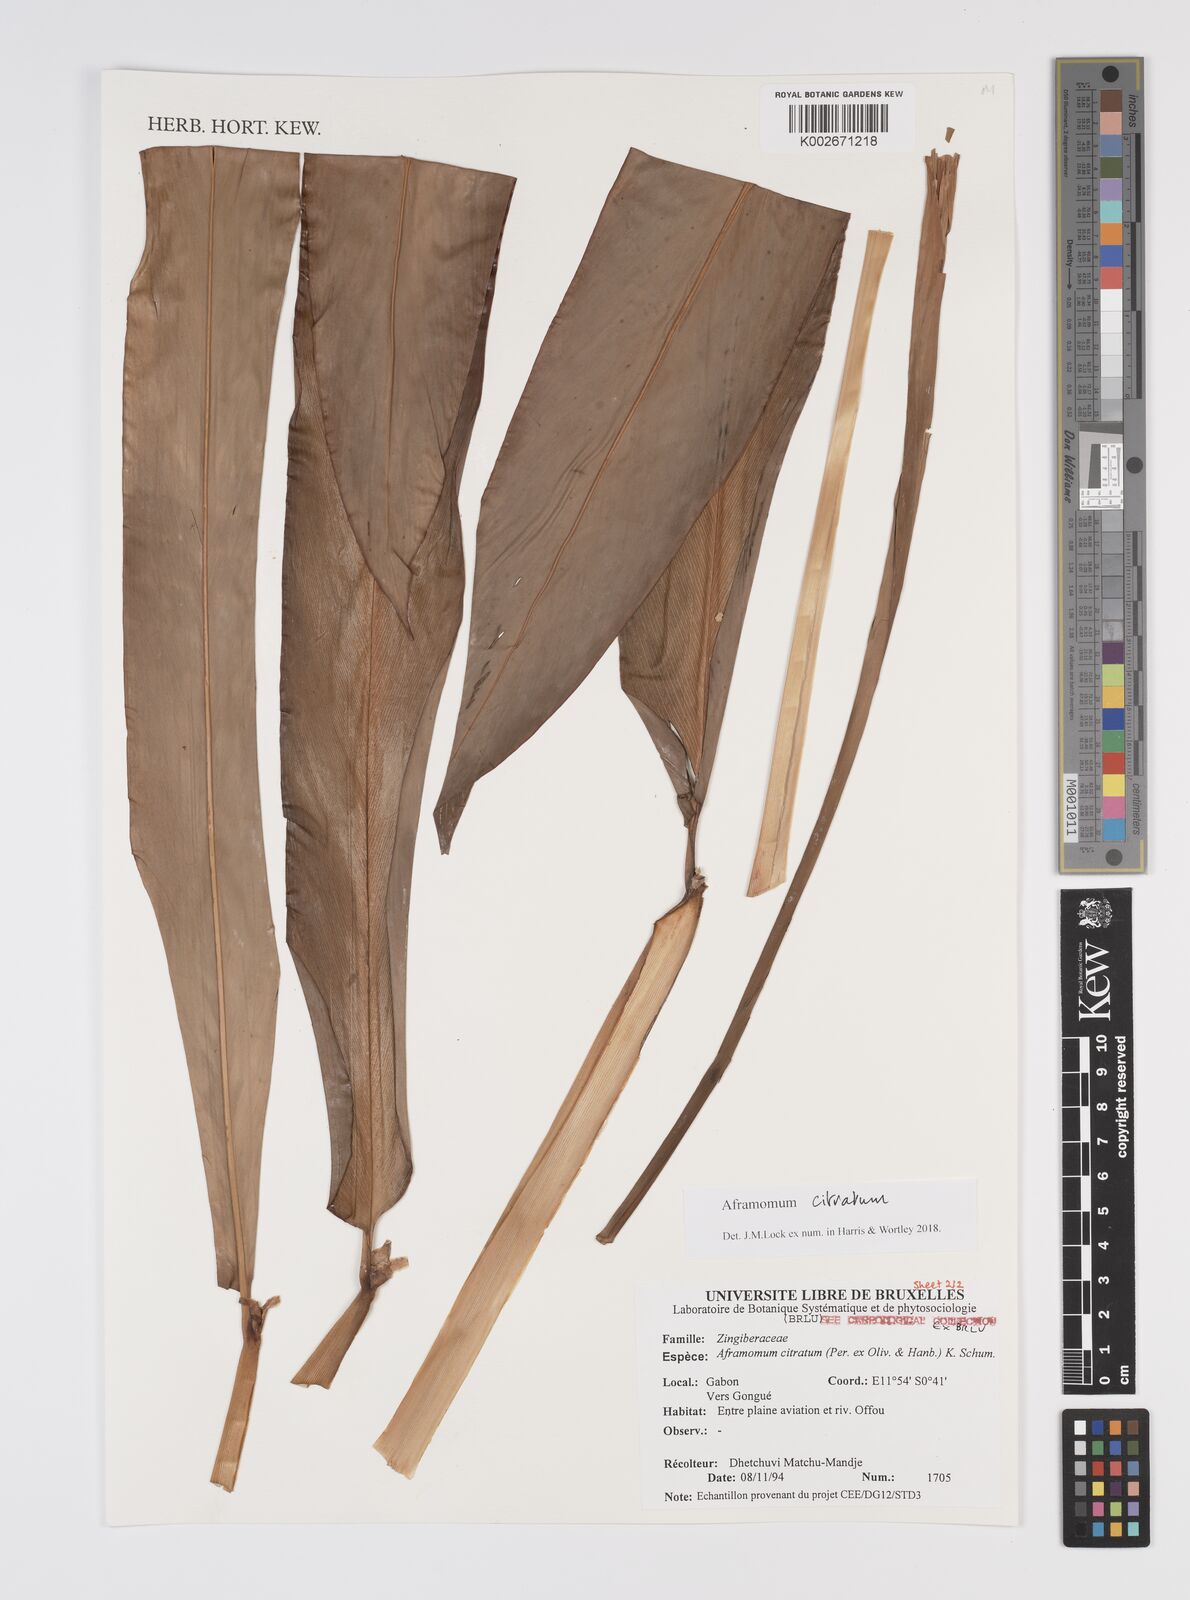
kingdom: Plantae
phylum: Tracheophyta
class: Liliopsida
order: Zingiberales
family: Zingiberaceae
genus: Aframomum
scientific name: Aframomum citratum
